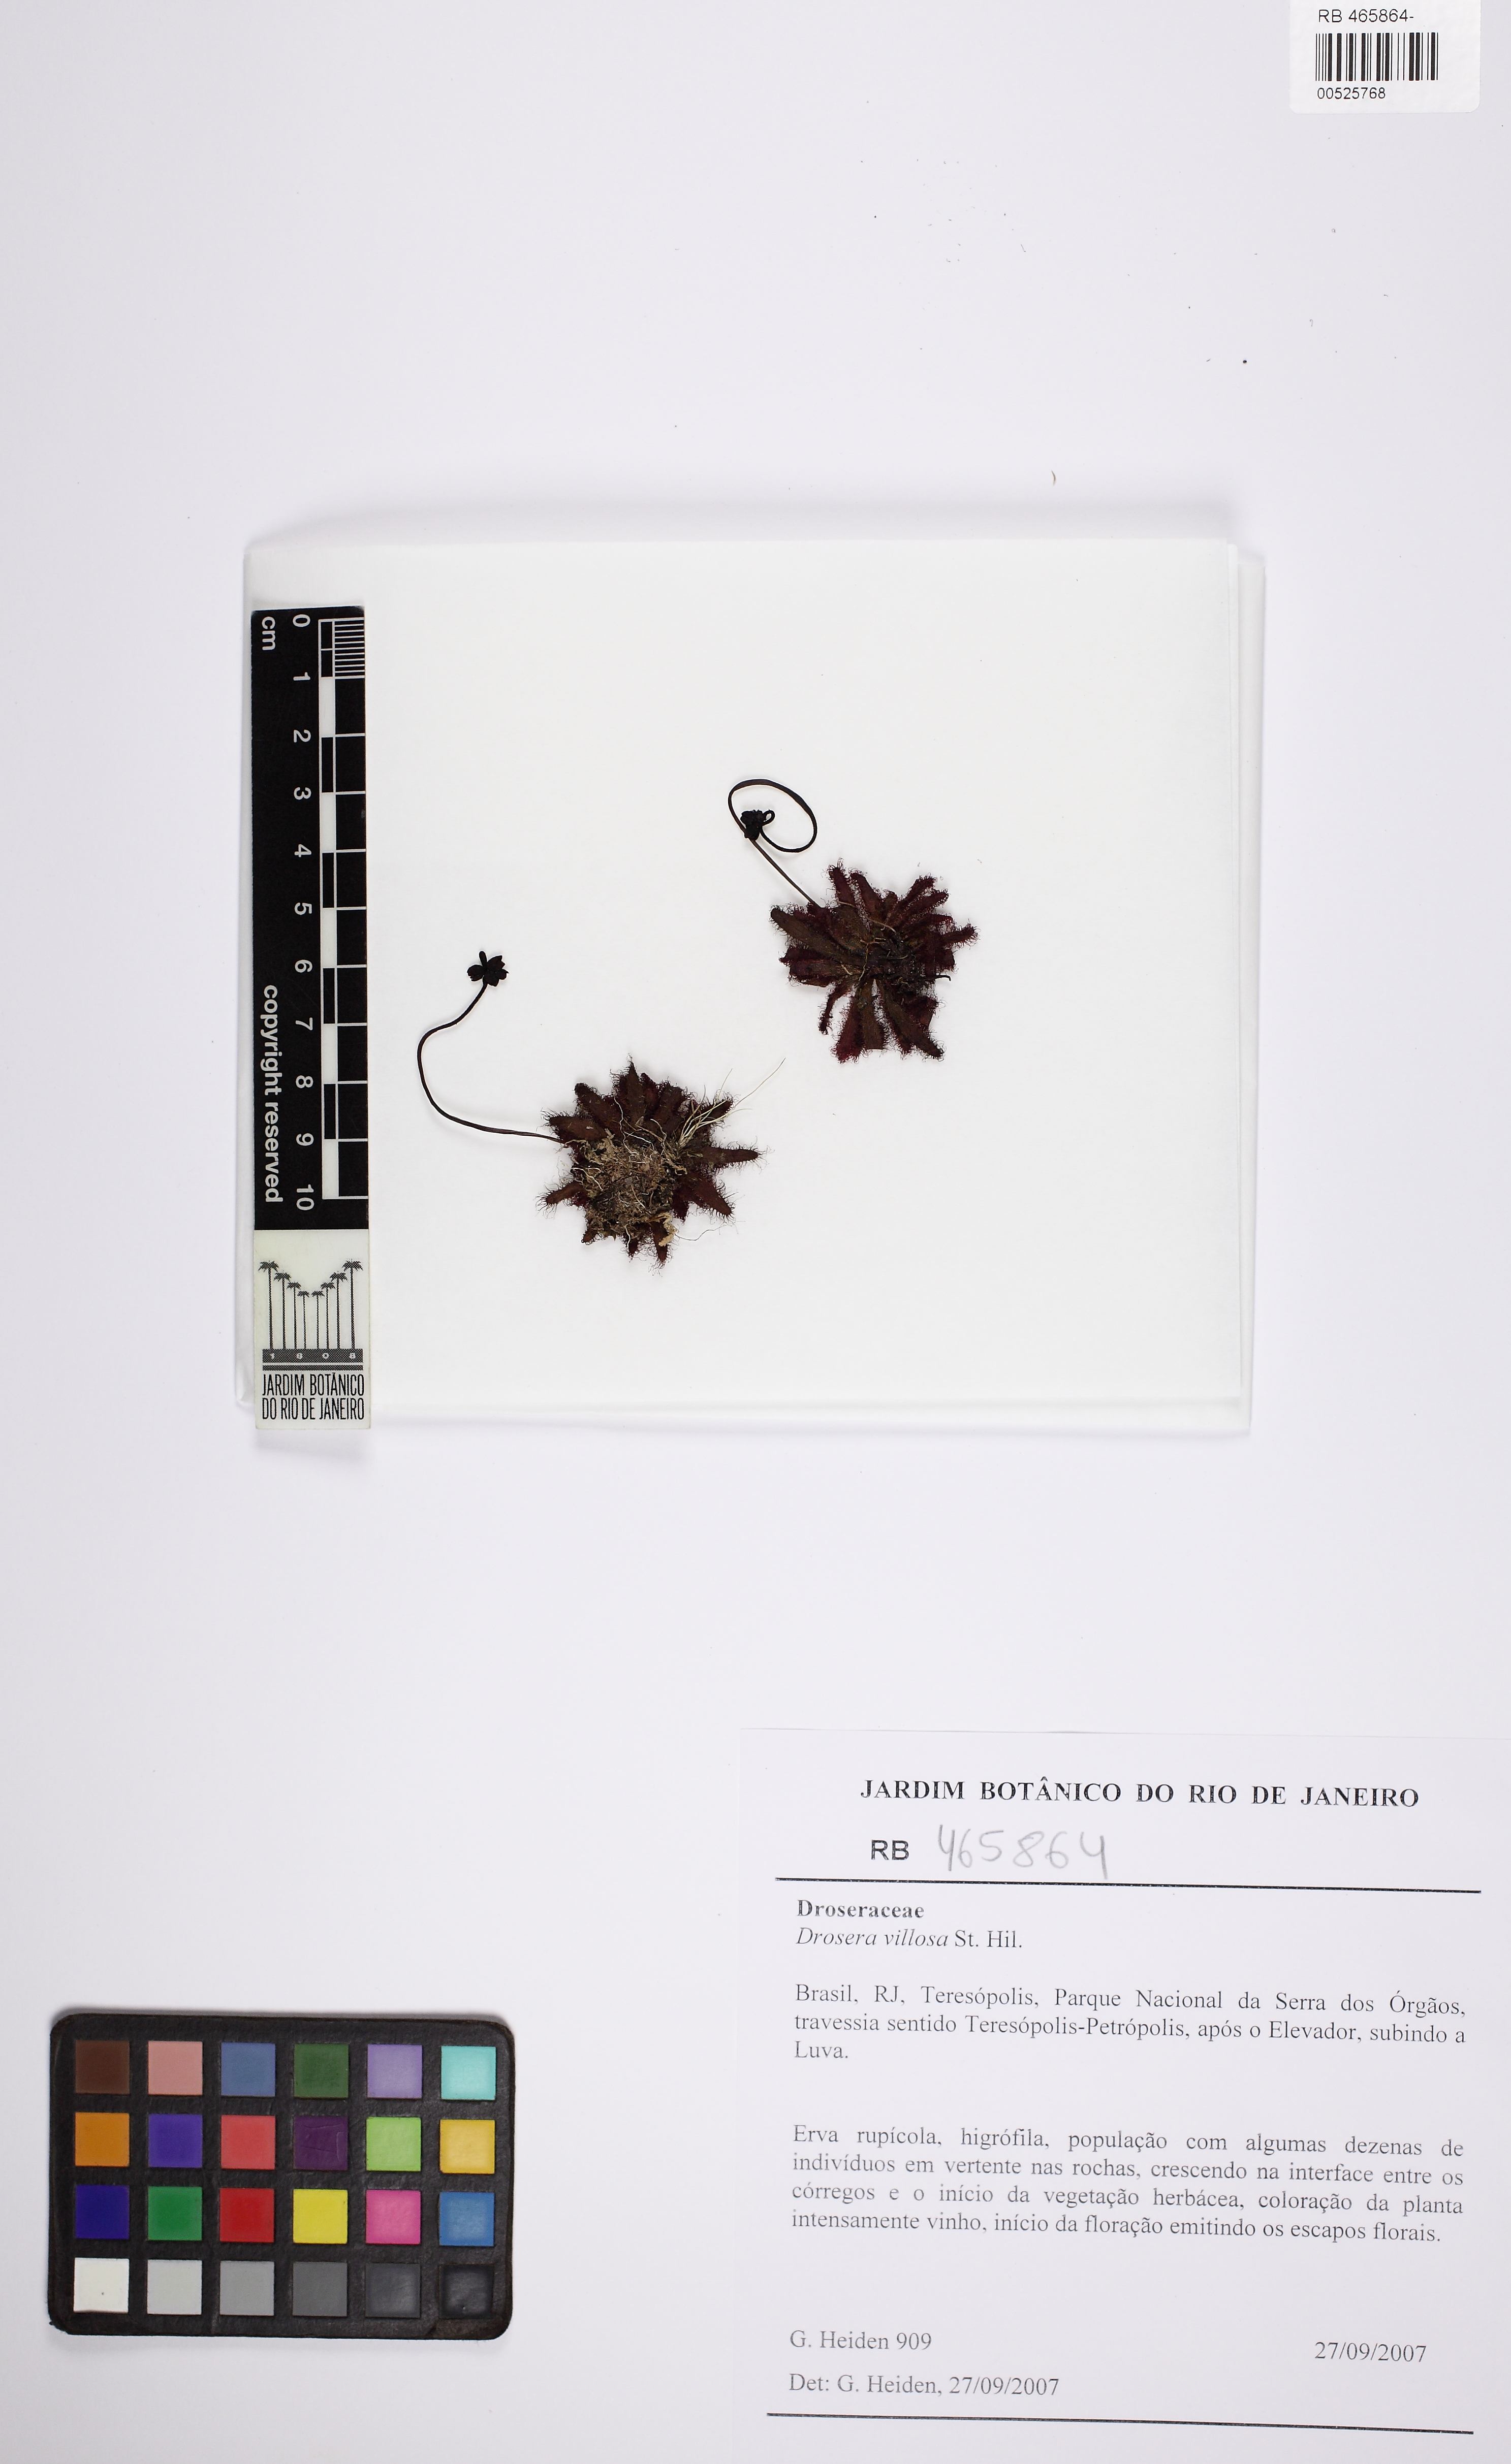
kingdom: Plantae
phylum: Tracheophyta
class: Magnoliopsida
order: Caryophyllales
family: Droseraceae
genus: Drosera
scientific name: Drosera latifolia
